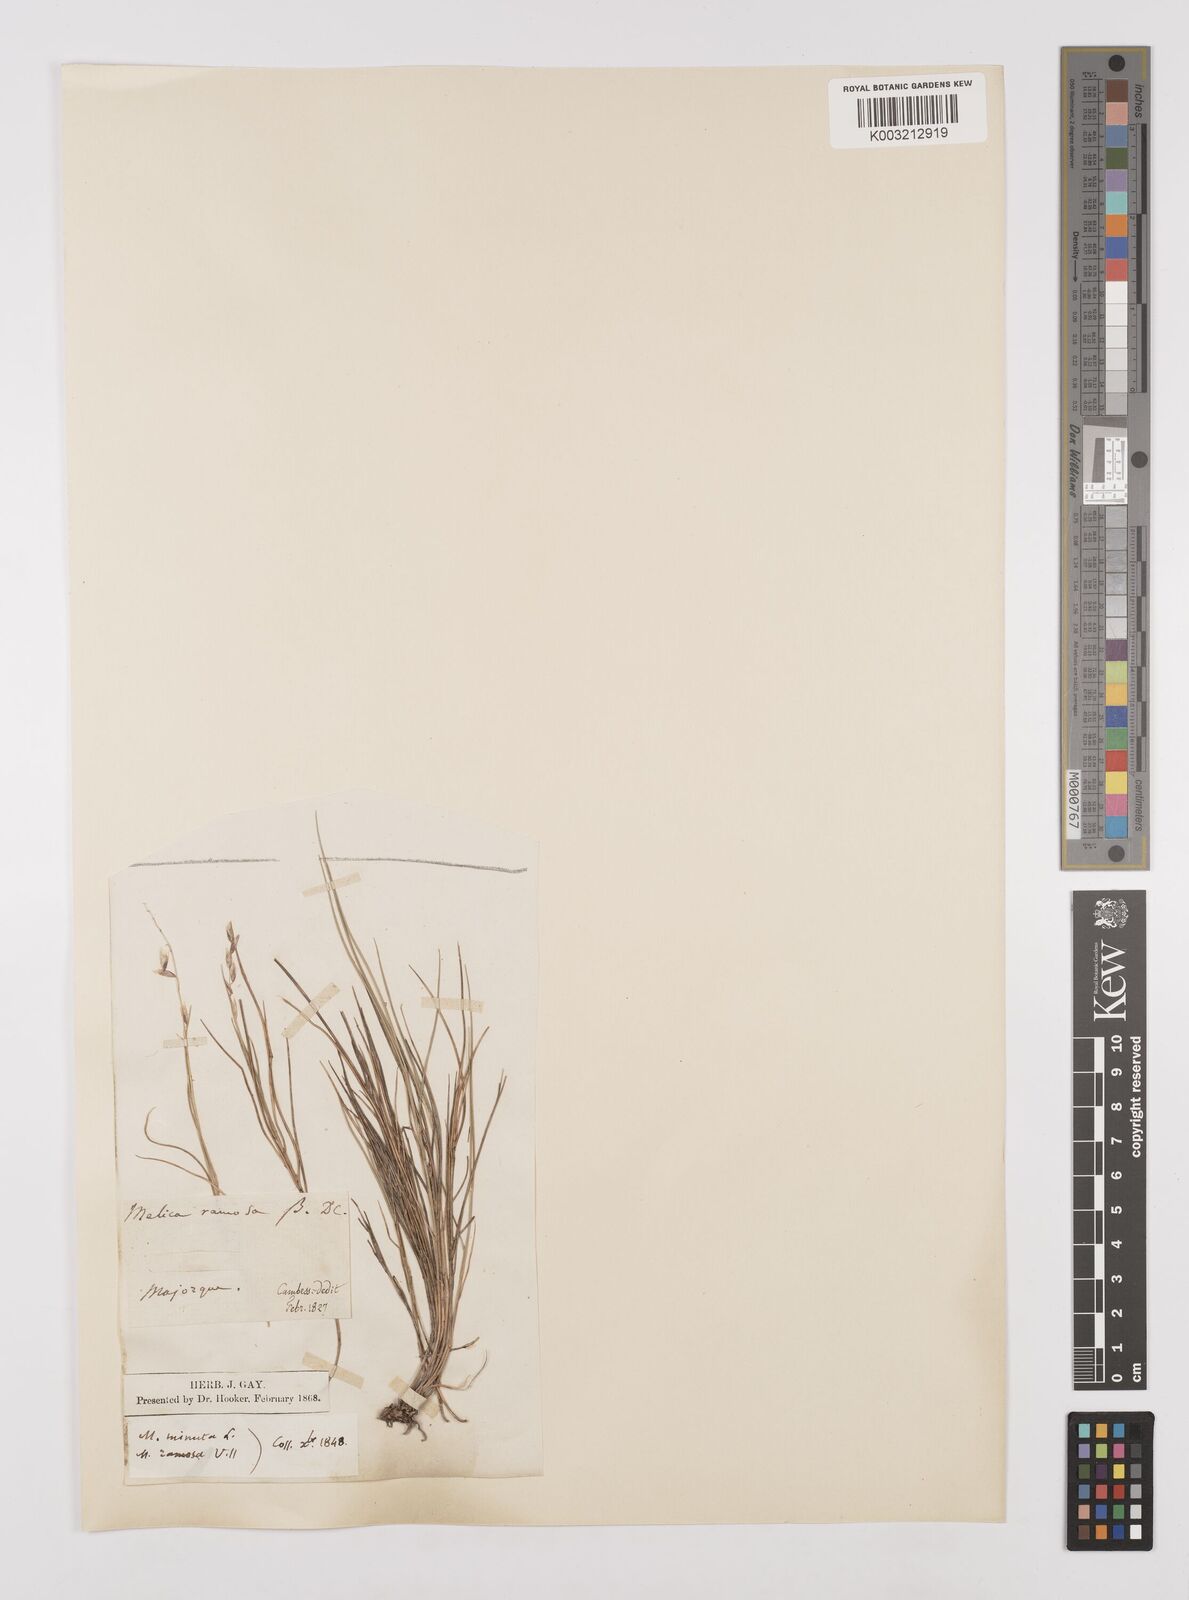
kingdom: Plantae
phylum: Tracheophyta
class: Liliopsida
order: Poales
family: Poaceae
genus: Melica
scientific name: Melica minuta
